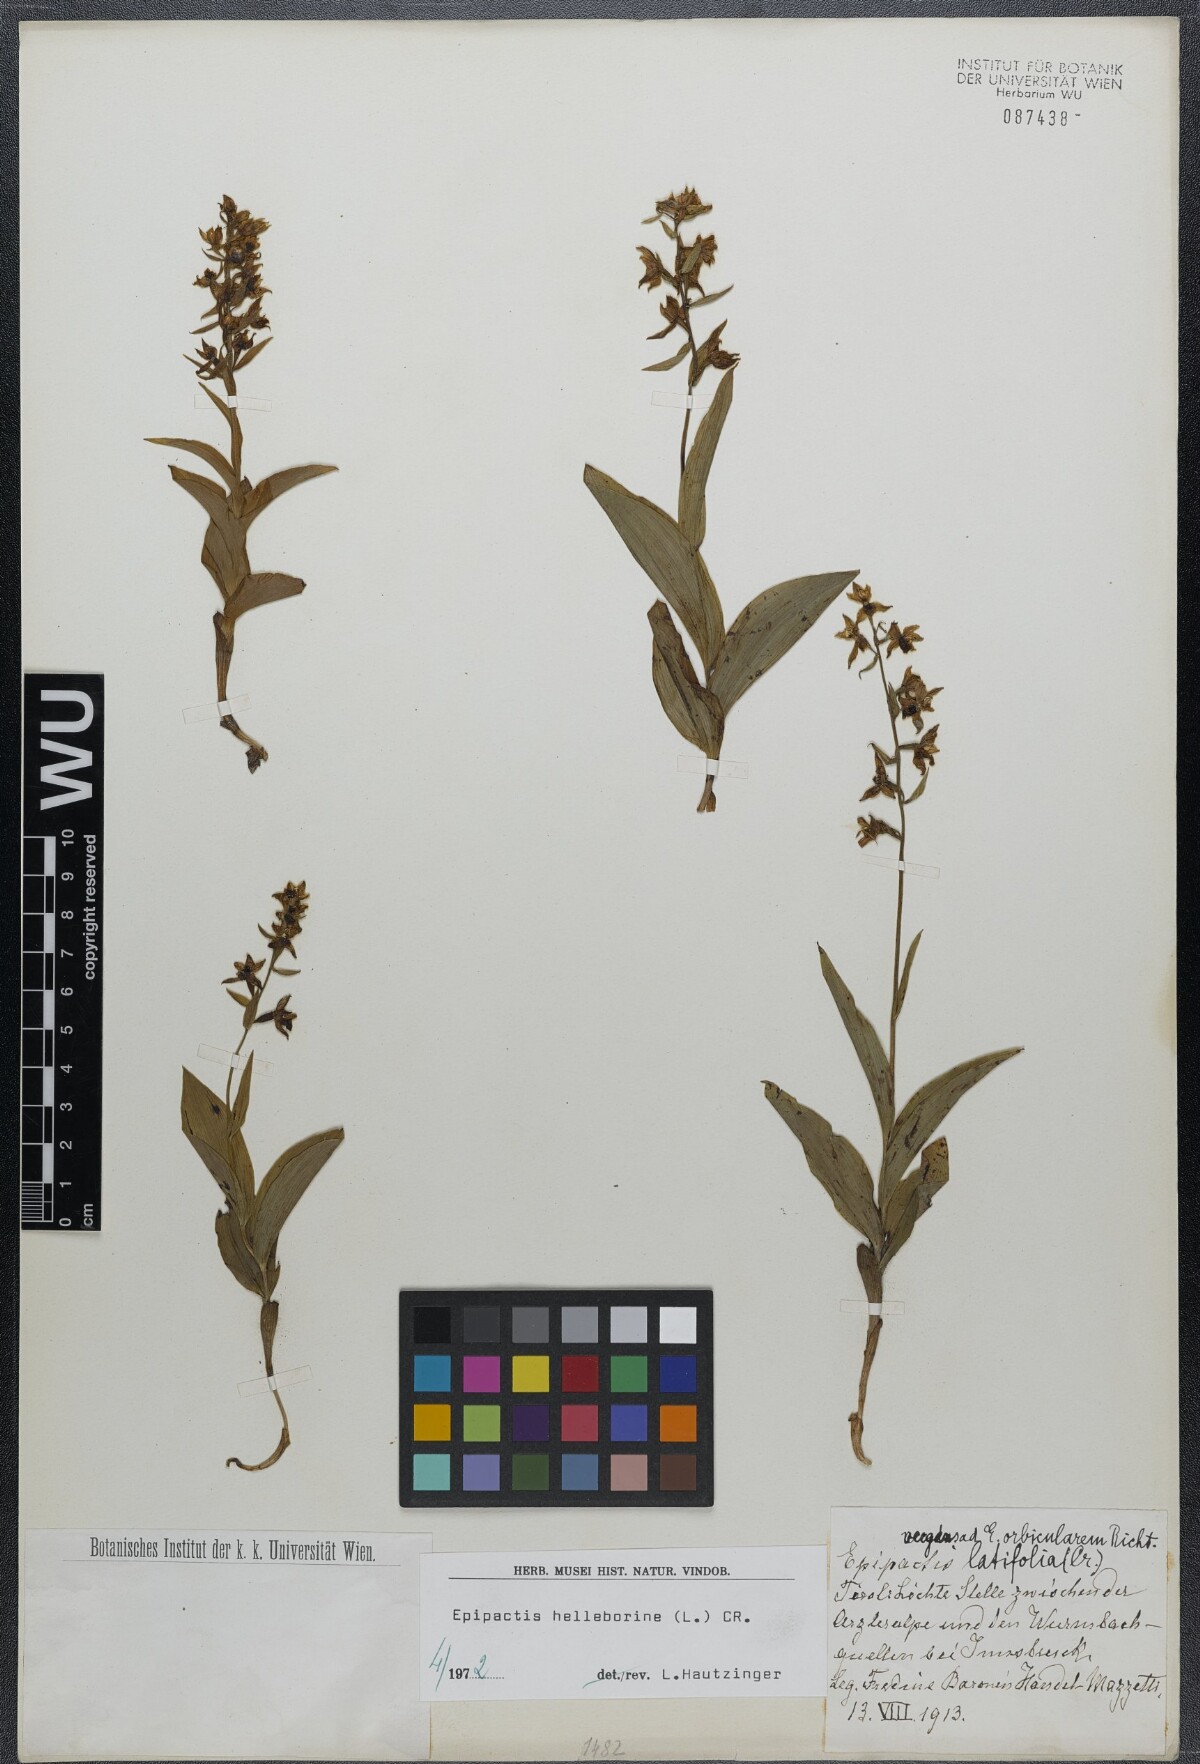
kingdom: Plantae
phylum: Tracheophyta
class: Liliopsida
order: Asparagales
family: Orchidaceae
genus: Epipactis
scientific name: Epipactis helleborine
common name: Broad-leaved helleborine
